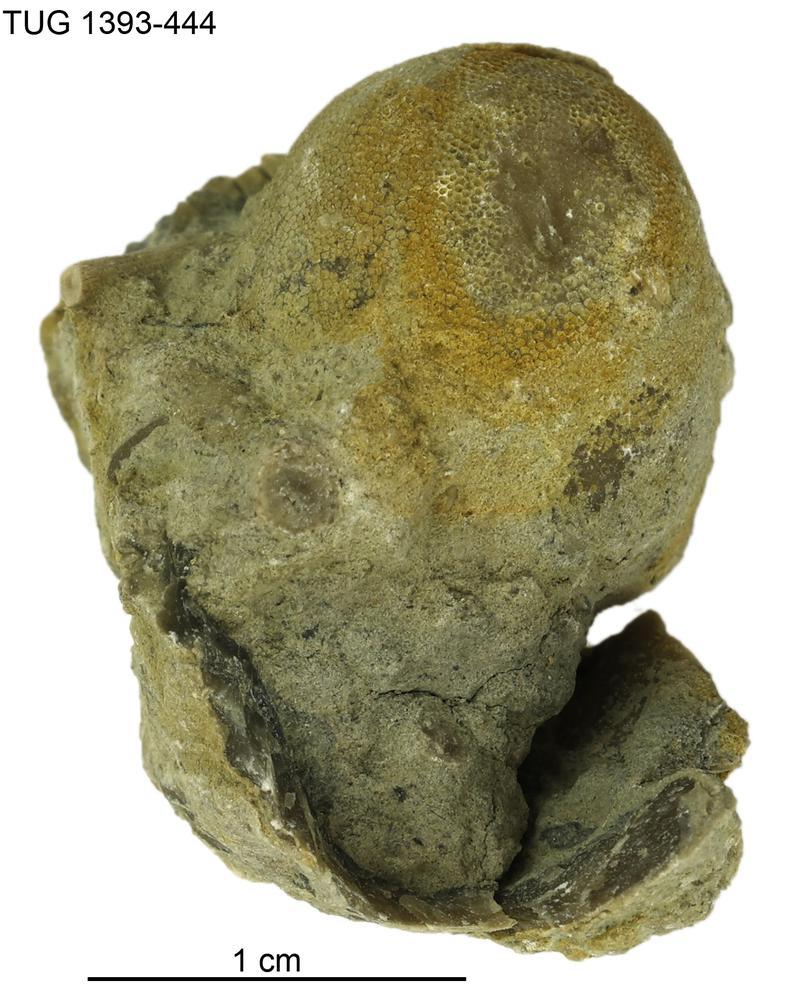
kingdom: Animalia
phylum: Bryozoa
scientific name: Bryozoa
